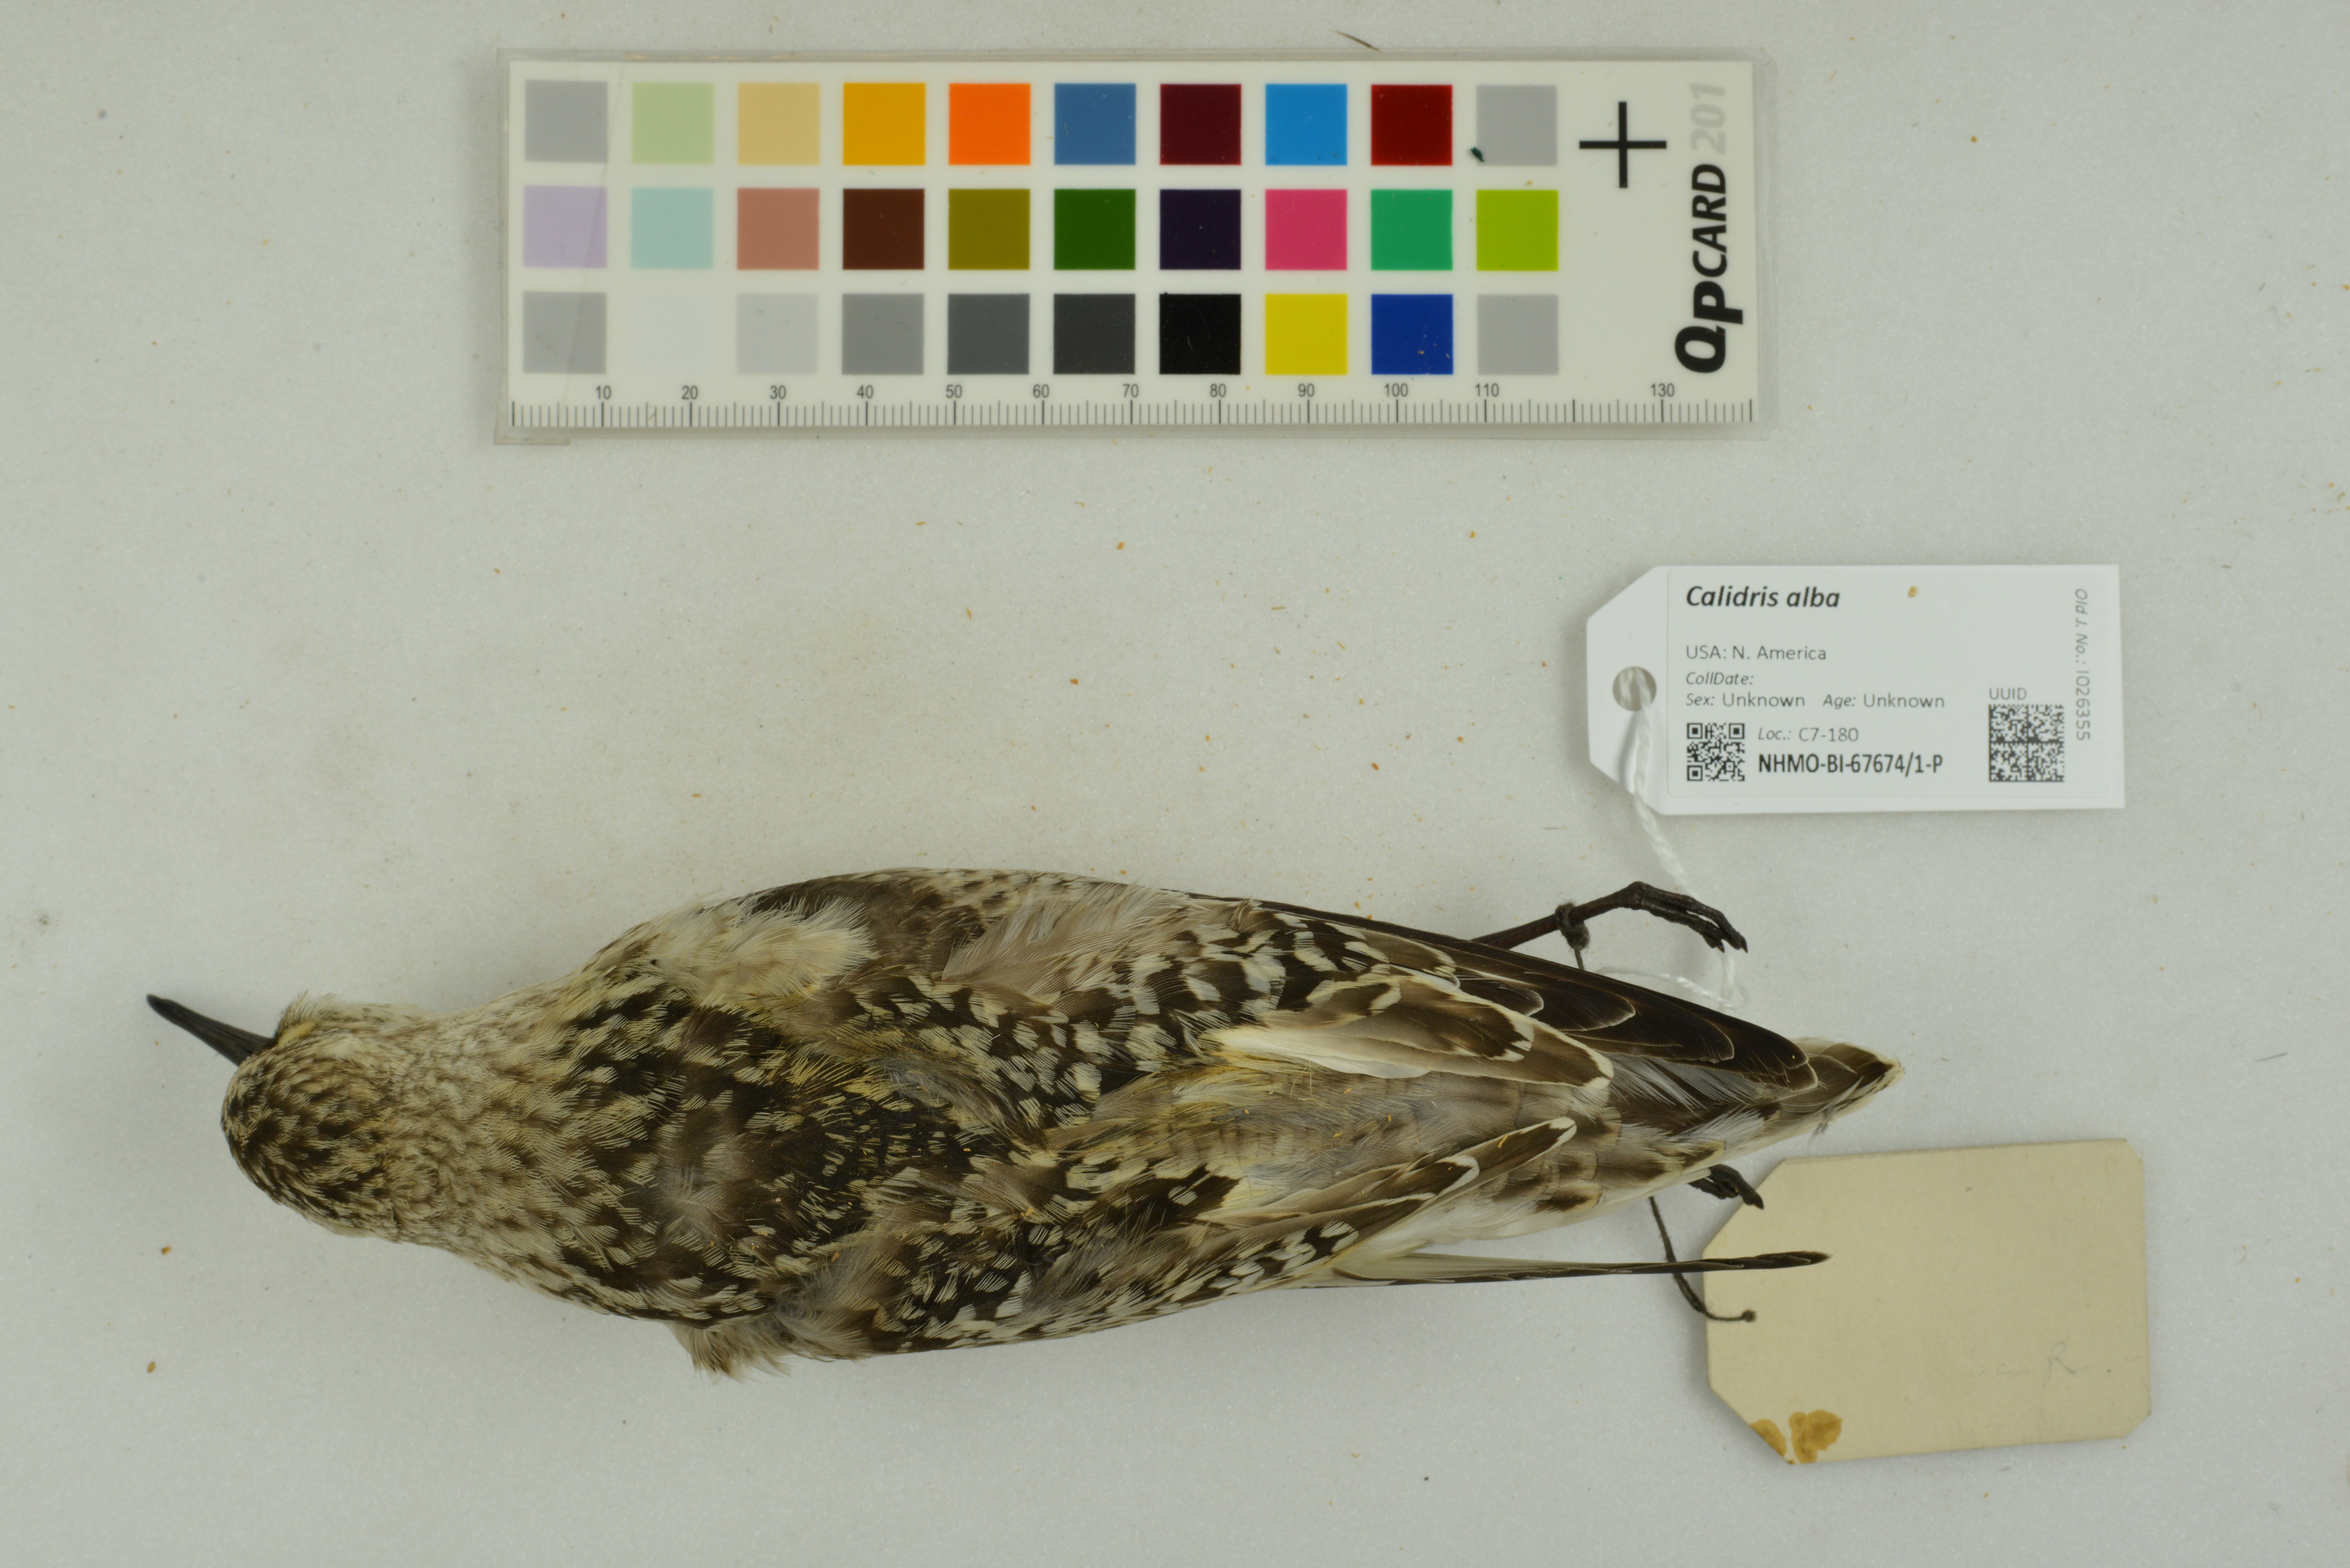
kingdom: Animalia
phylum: Chordata
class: Aves
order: Charadriiformes
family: Scolopacidae
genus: Calidris
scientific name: Calidris alba
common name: Sanderling
